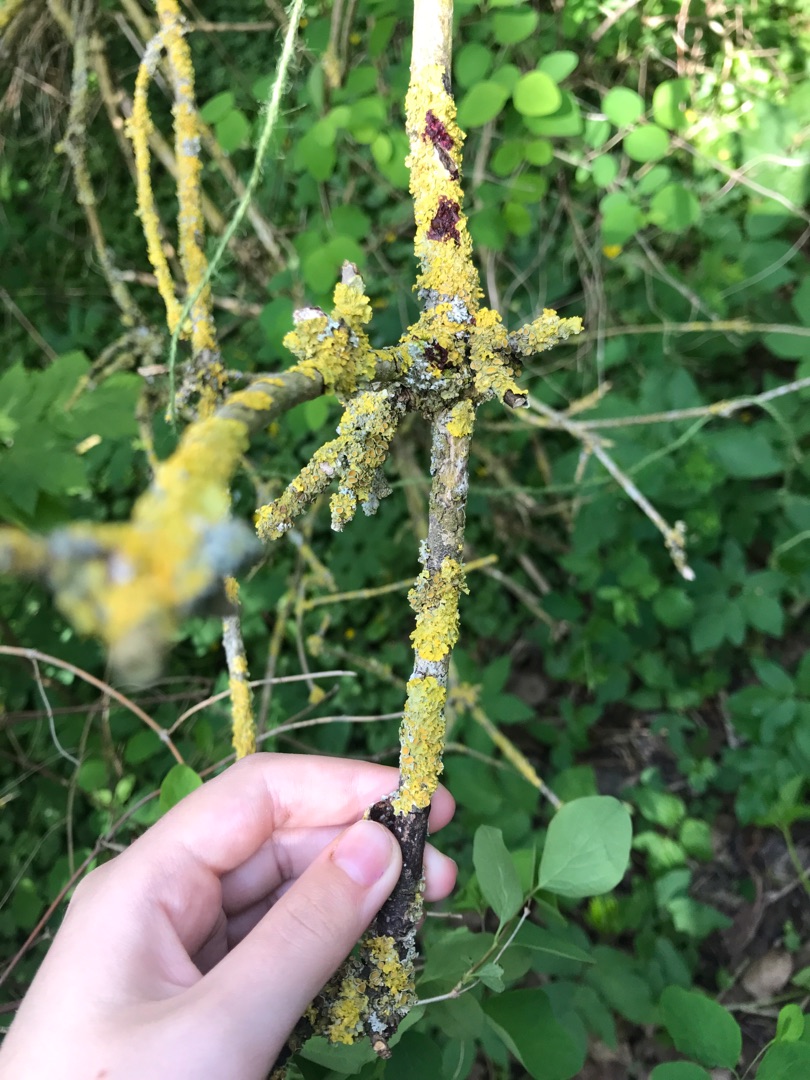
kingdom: Fungi
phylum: Ascomycota
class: Lecanoromycetes
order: Teloschistales
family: Teloschistaceae
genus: Xanthoria
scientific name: Xanthoria parietina
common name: Almindelig væggelav
